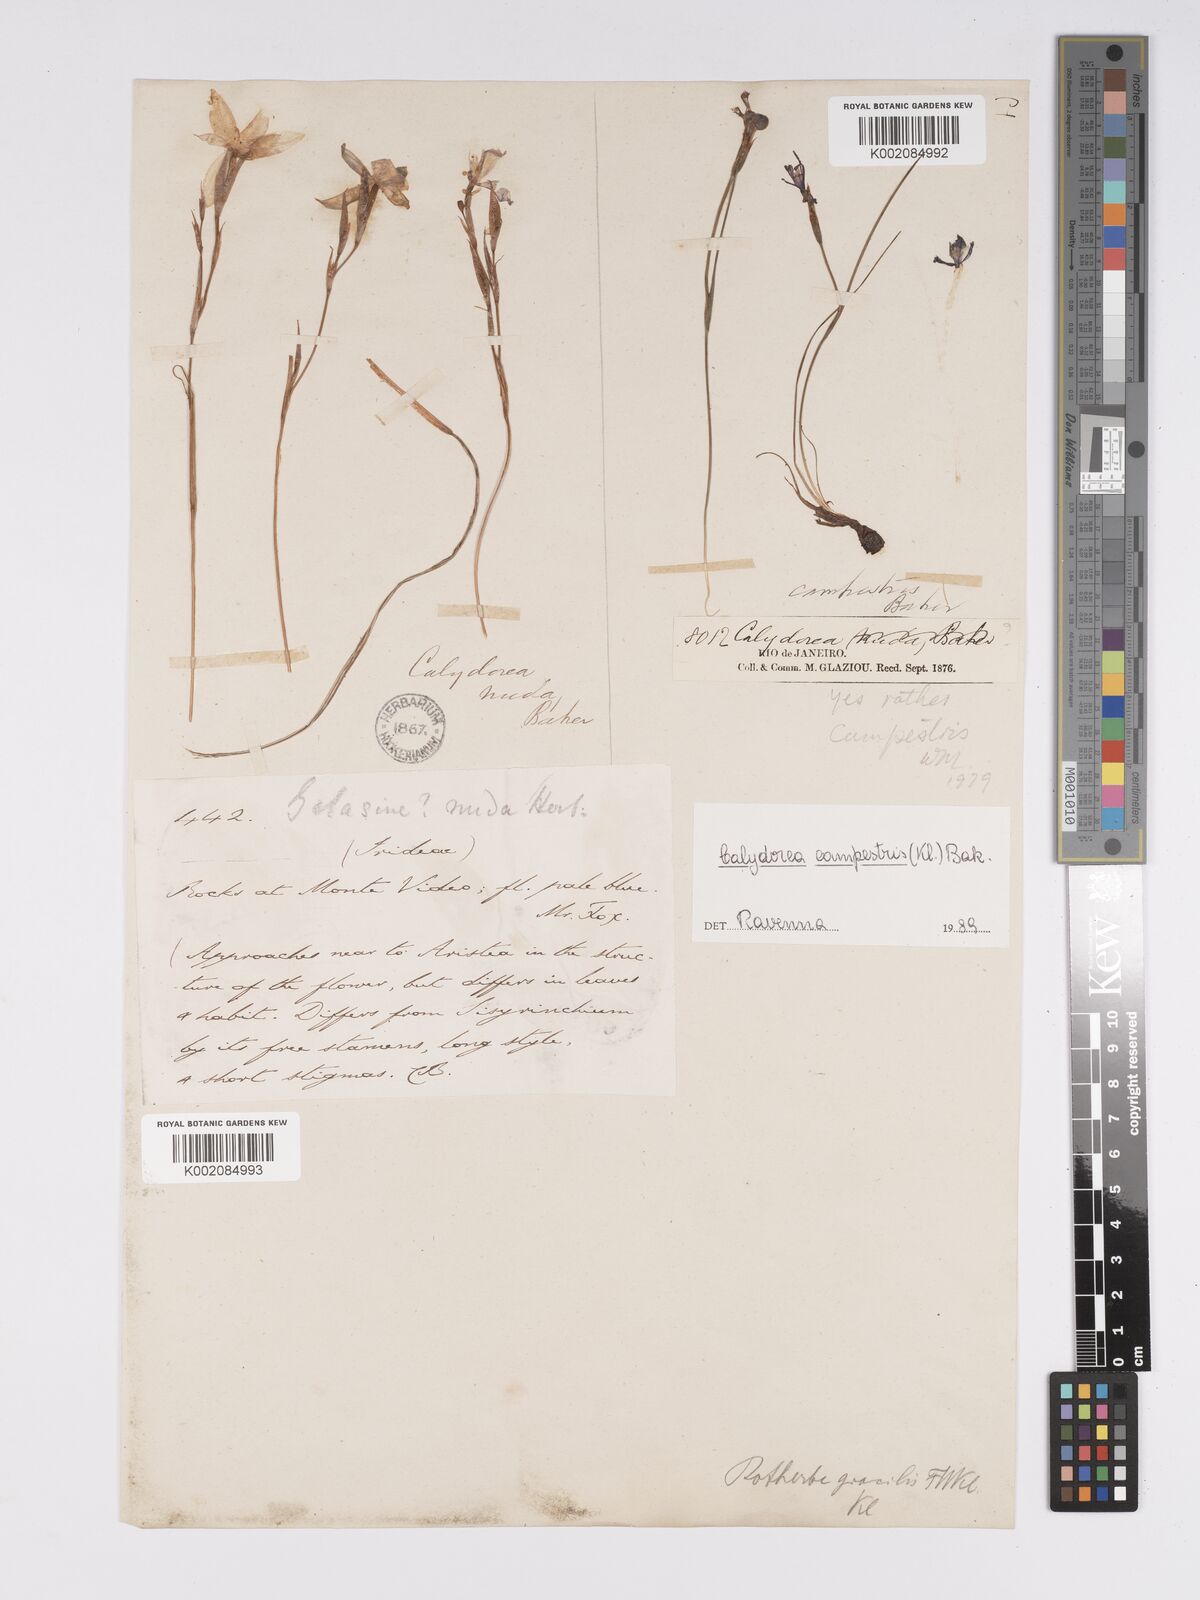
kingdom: Plantae
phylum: Tracheophyta
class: Liliopsida
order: Asparagales
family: Iridaceae
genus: Calydorea
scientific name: Calydorea campestris
